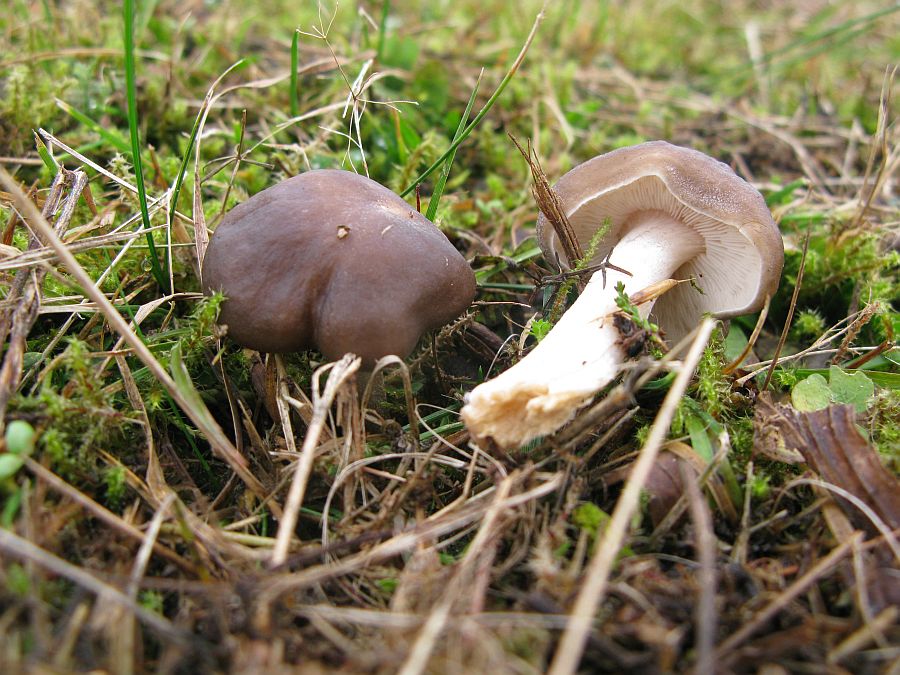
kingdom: Fungi
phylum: Basidiomycota
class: Agaricomycetes
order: Agaricales
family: Tricholomataceae
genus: Melanoleuca
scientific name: Melanoleuca oreina
